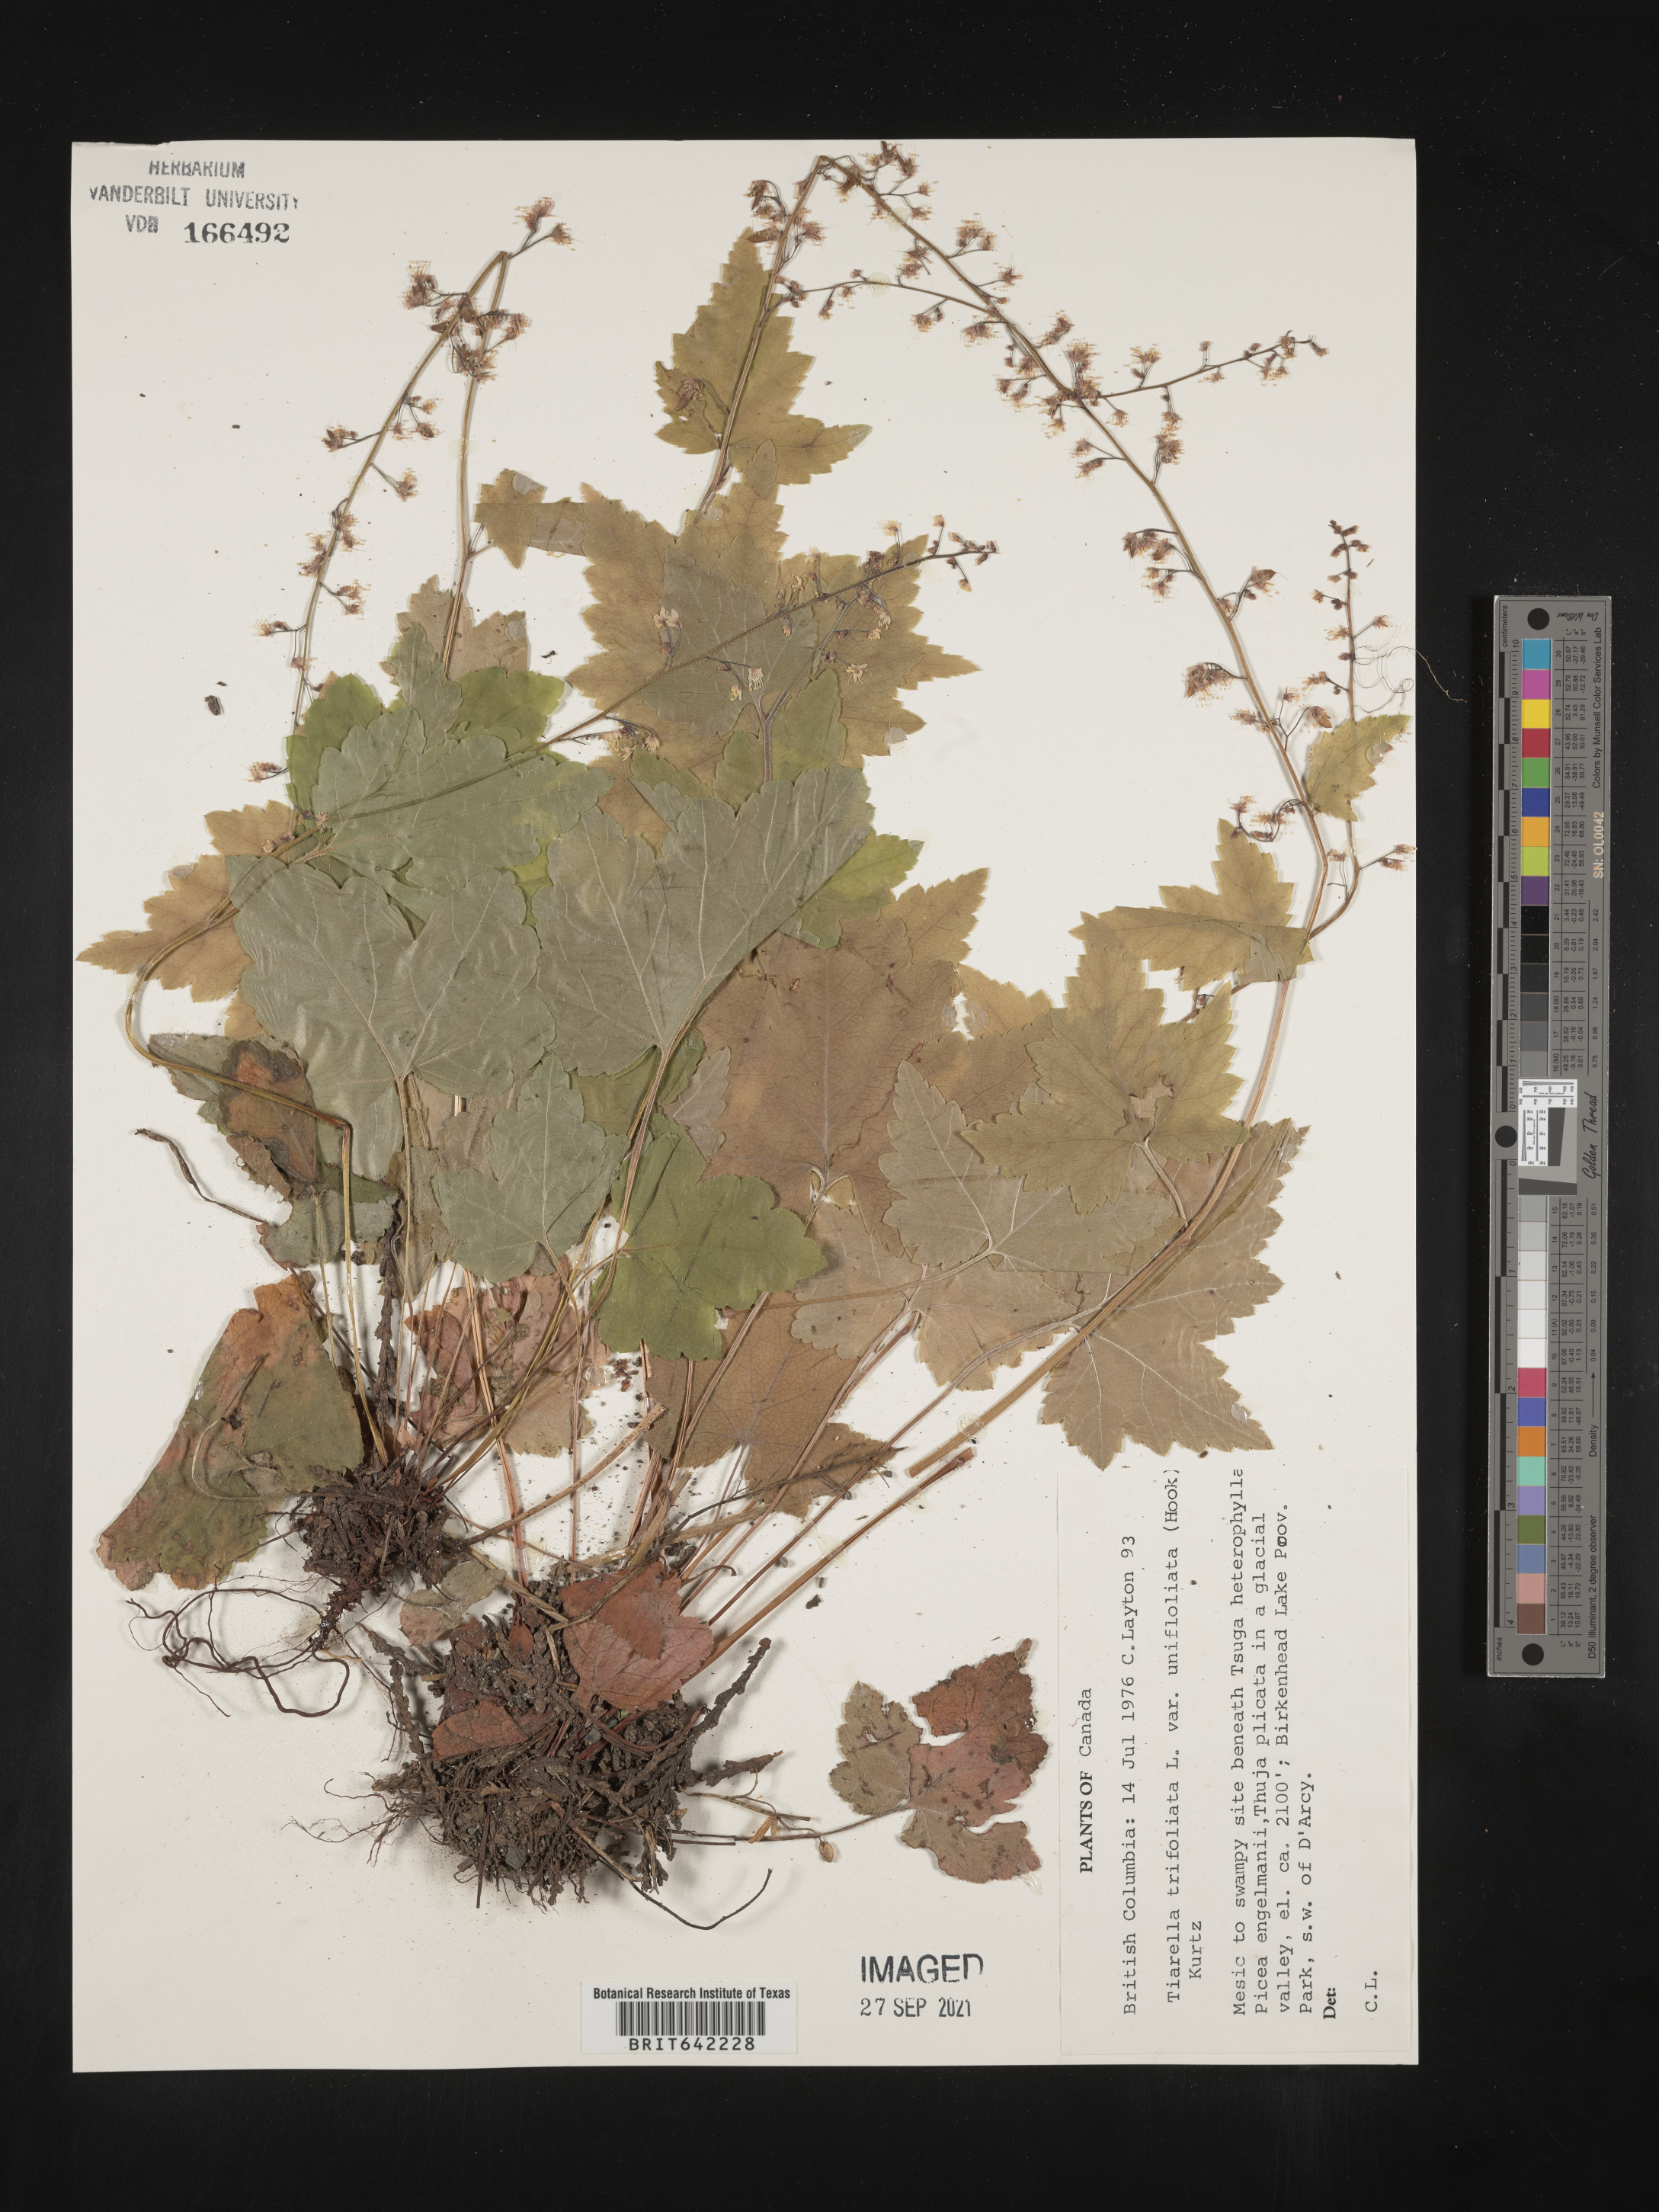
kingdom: Plantae
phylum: Tracheophyta
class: Magnoliopsida
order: Saxifragales
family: Saxifragaceae
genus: Tiarella
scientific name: Tiarella
